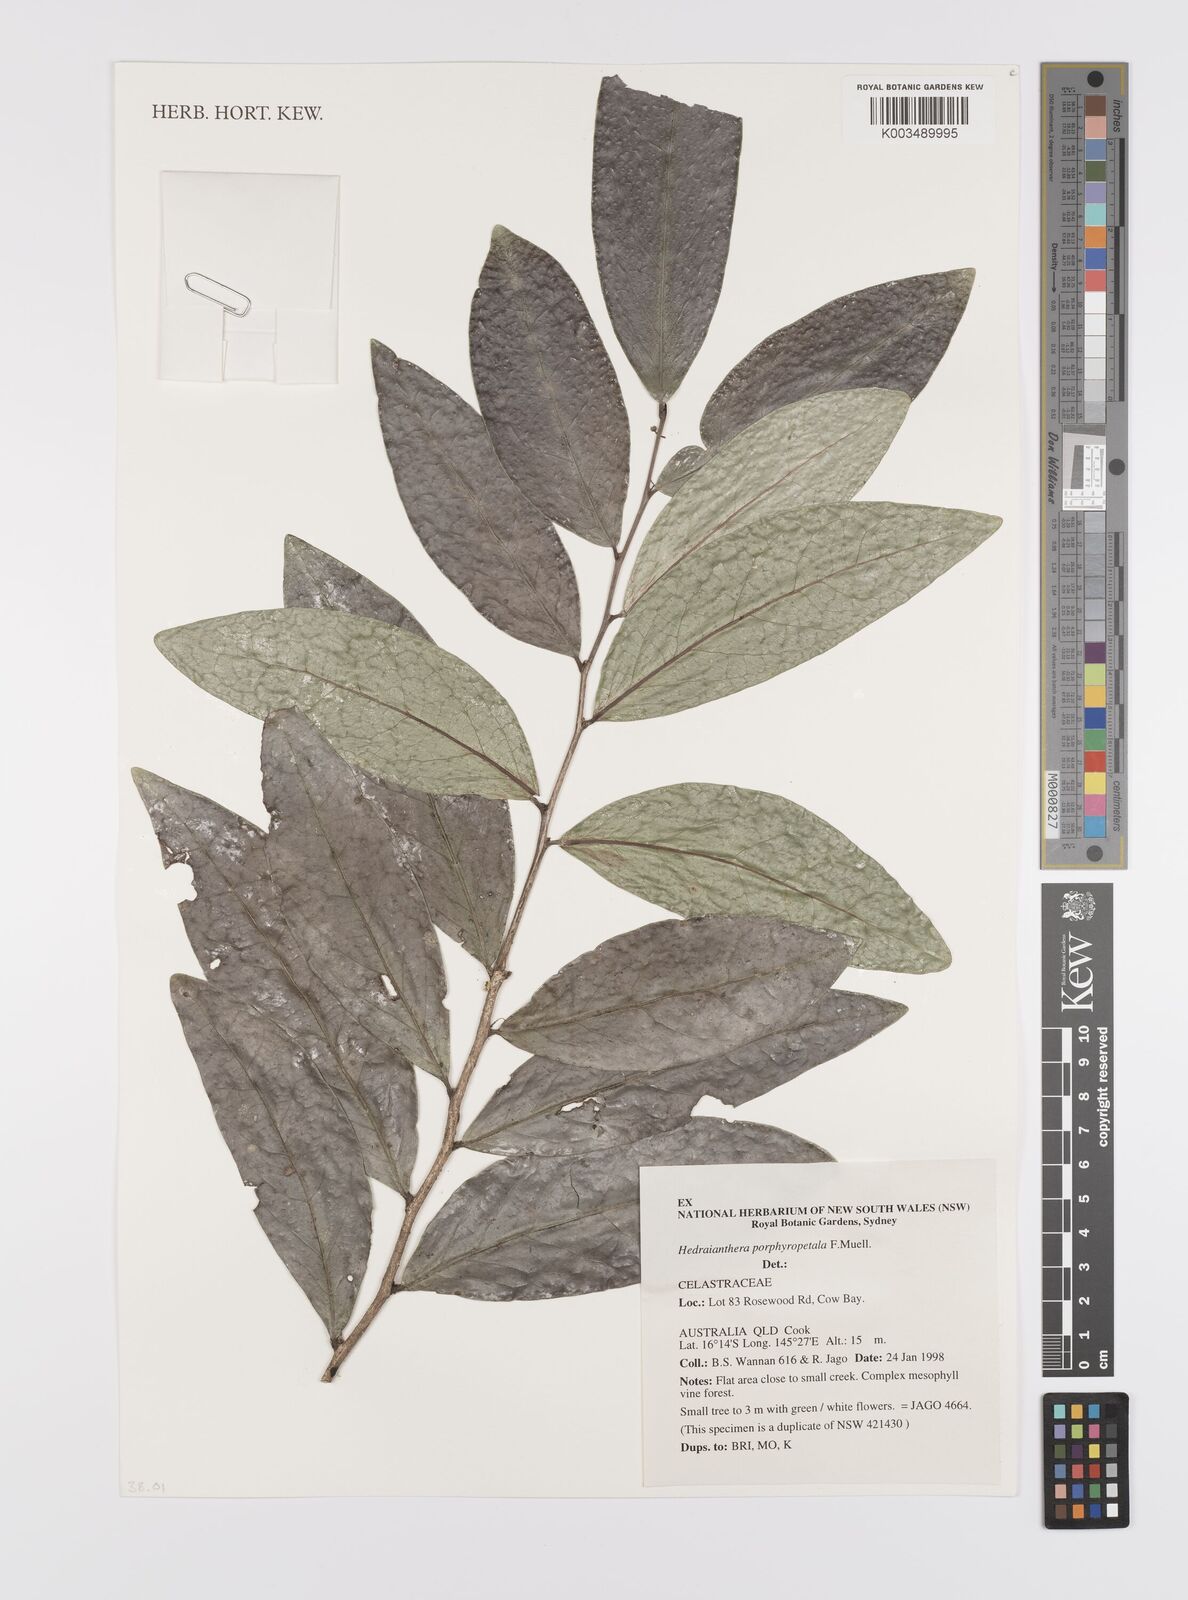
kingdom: Plantae
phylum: Tracheophyta
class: Magnoliopsida
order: Celastrales
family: Celastraceae
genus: Hedraianthera
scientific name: Hedraianthera porphyropetala
